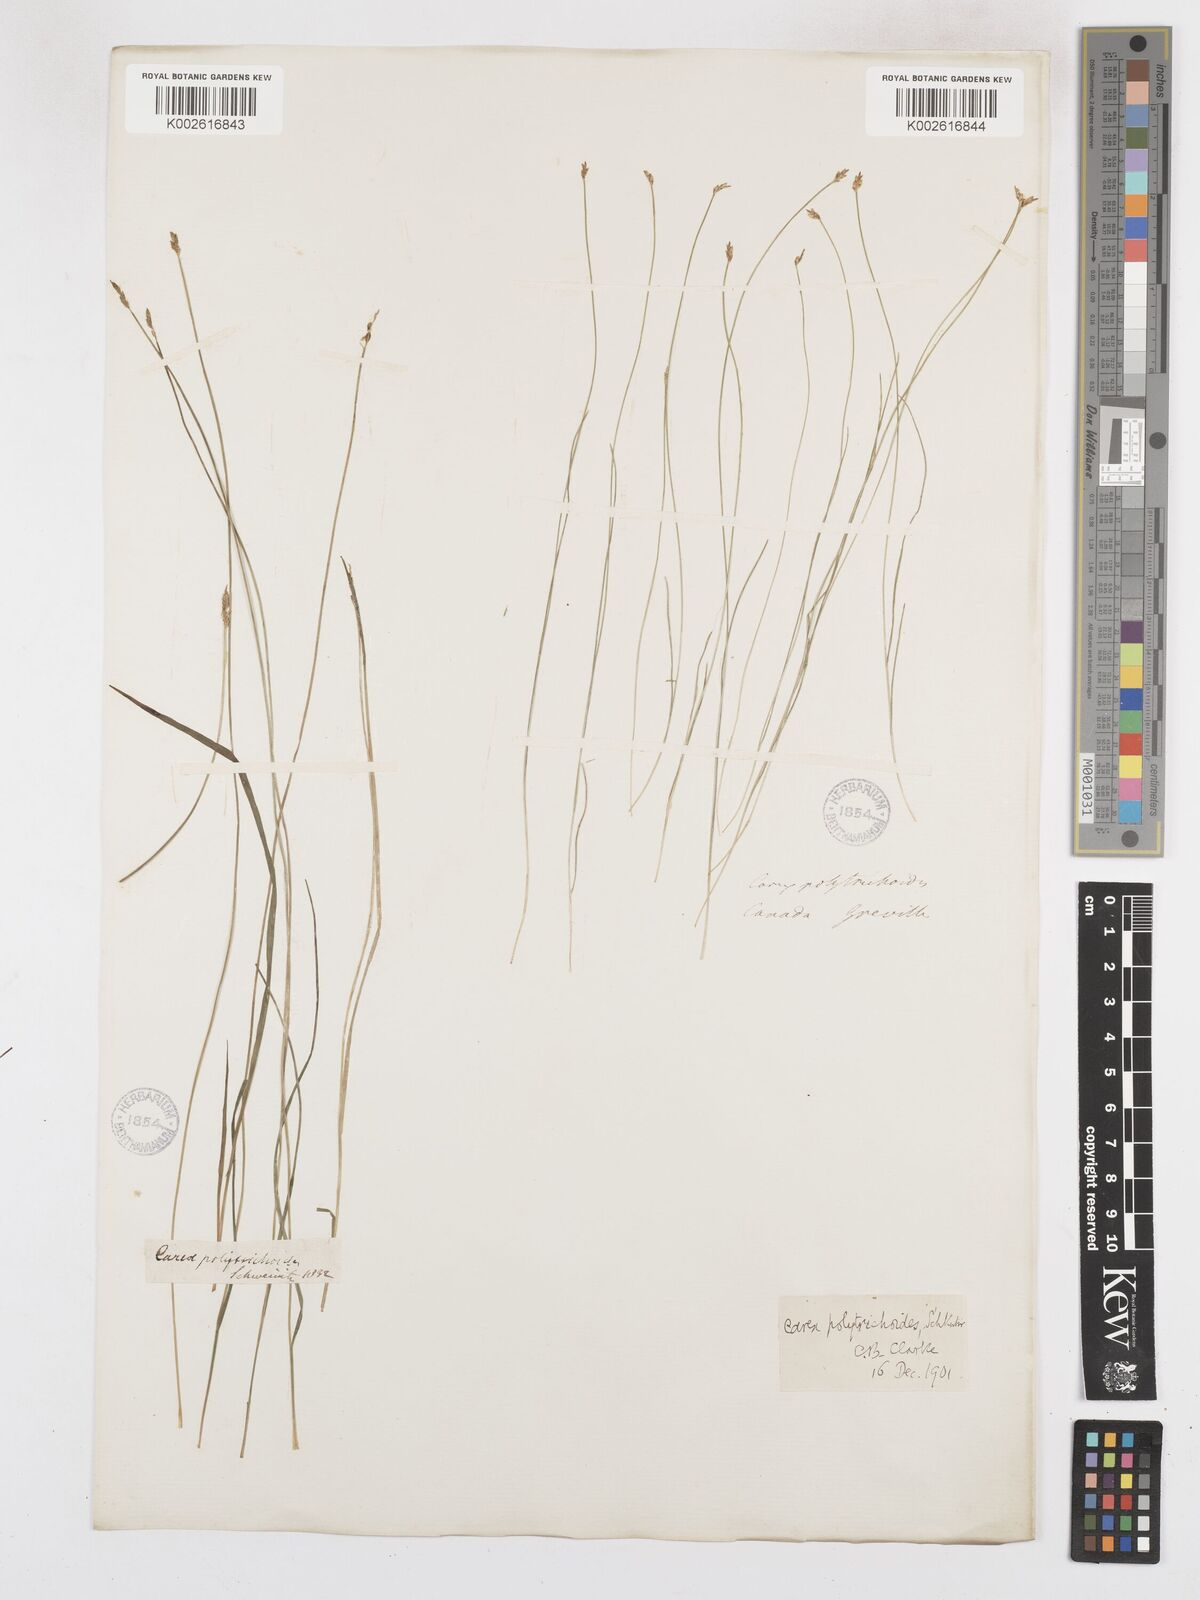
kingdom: Plantae
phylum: Tracheophyta
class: Liliopsida
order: Poales
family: Cyperaceae
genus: Carex
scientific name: Carex leptalea
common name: Bristly-stalked sedge
